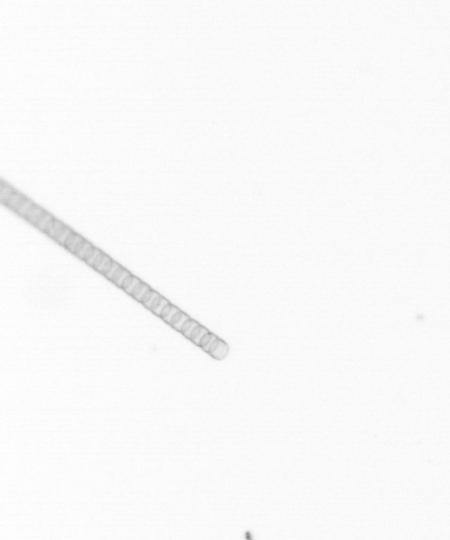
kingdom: Chromista
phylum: Ochrophyta
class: Bacillariophyceae
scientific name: Bacillariophyceae
